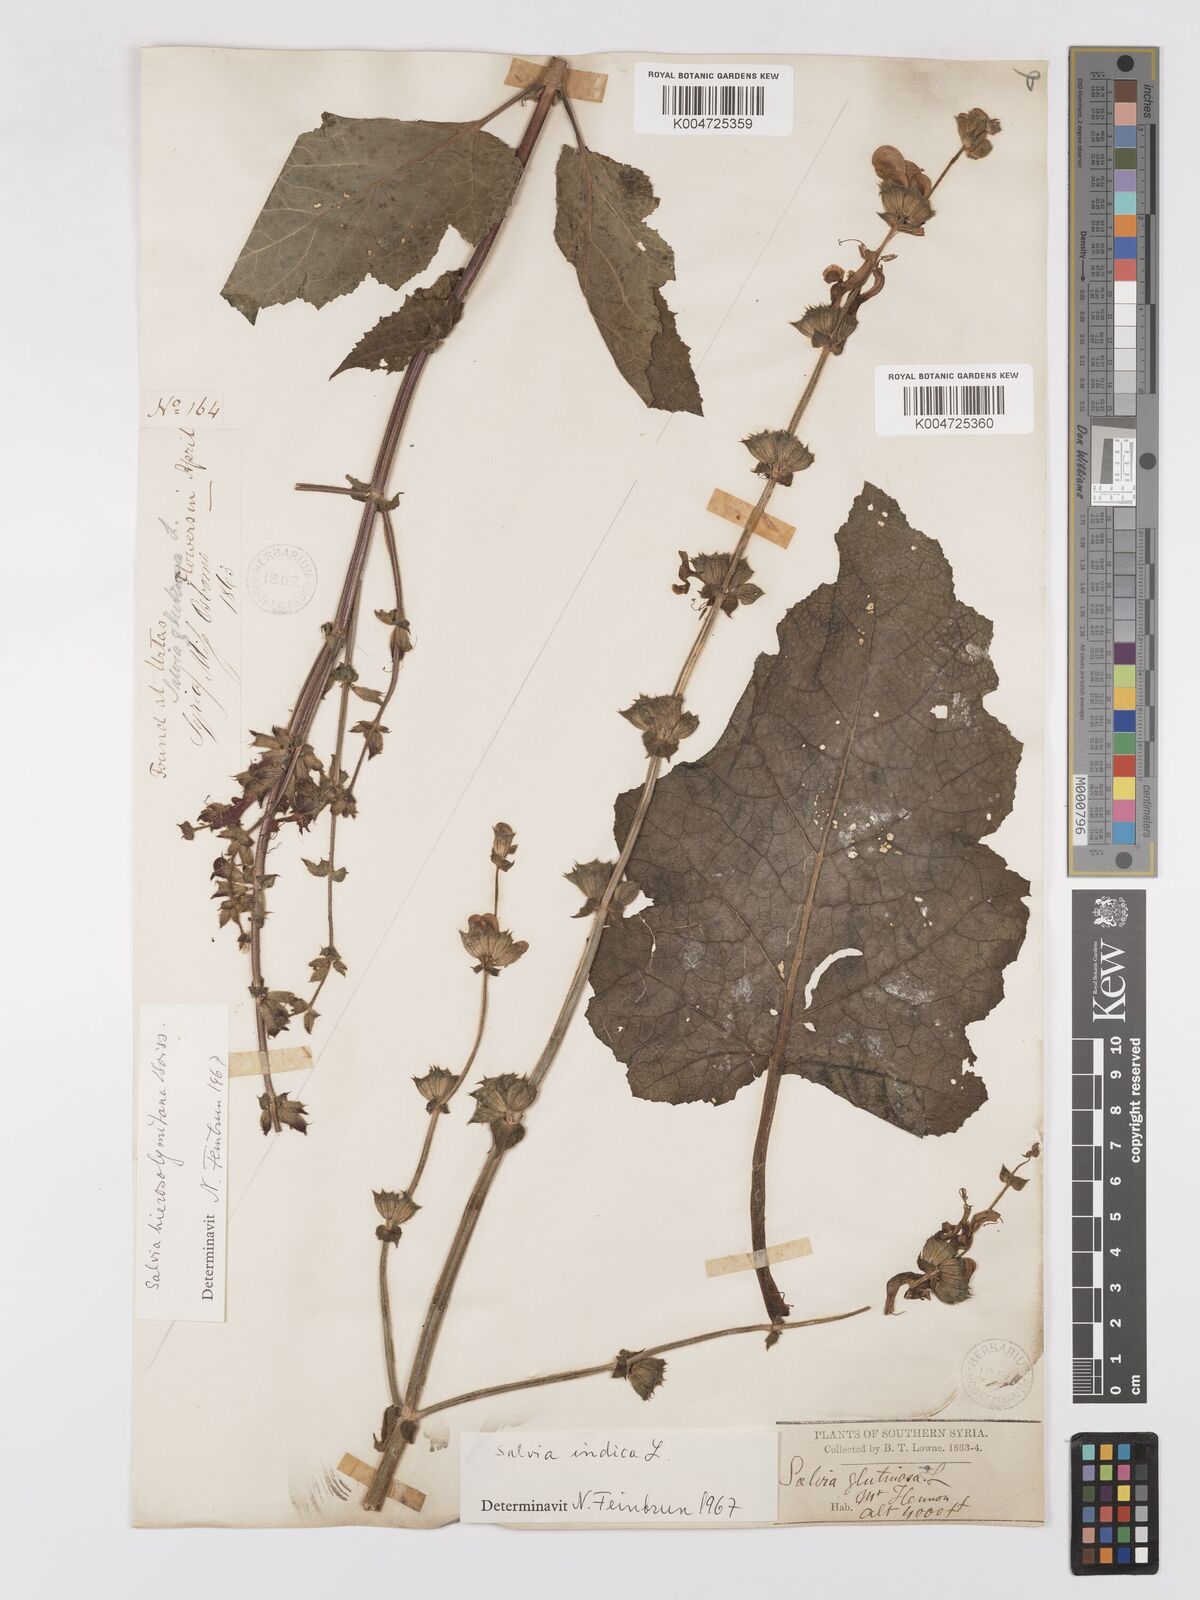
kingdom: Plantae
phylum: Tracheophyta
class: Magnoliopsida
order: Lamiales
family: Lamiaceae
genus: Salvia
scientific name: Salvia indica
